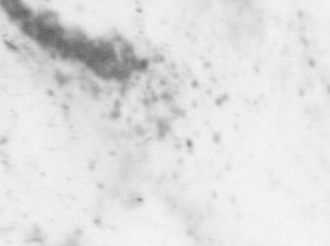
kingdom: Animalia
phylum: Chordata
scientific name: Chordata
